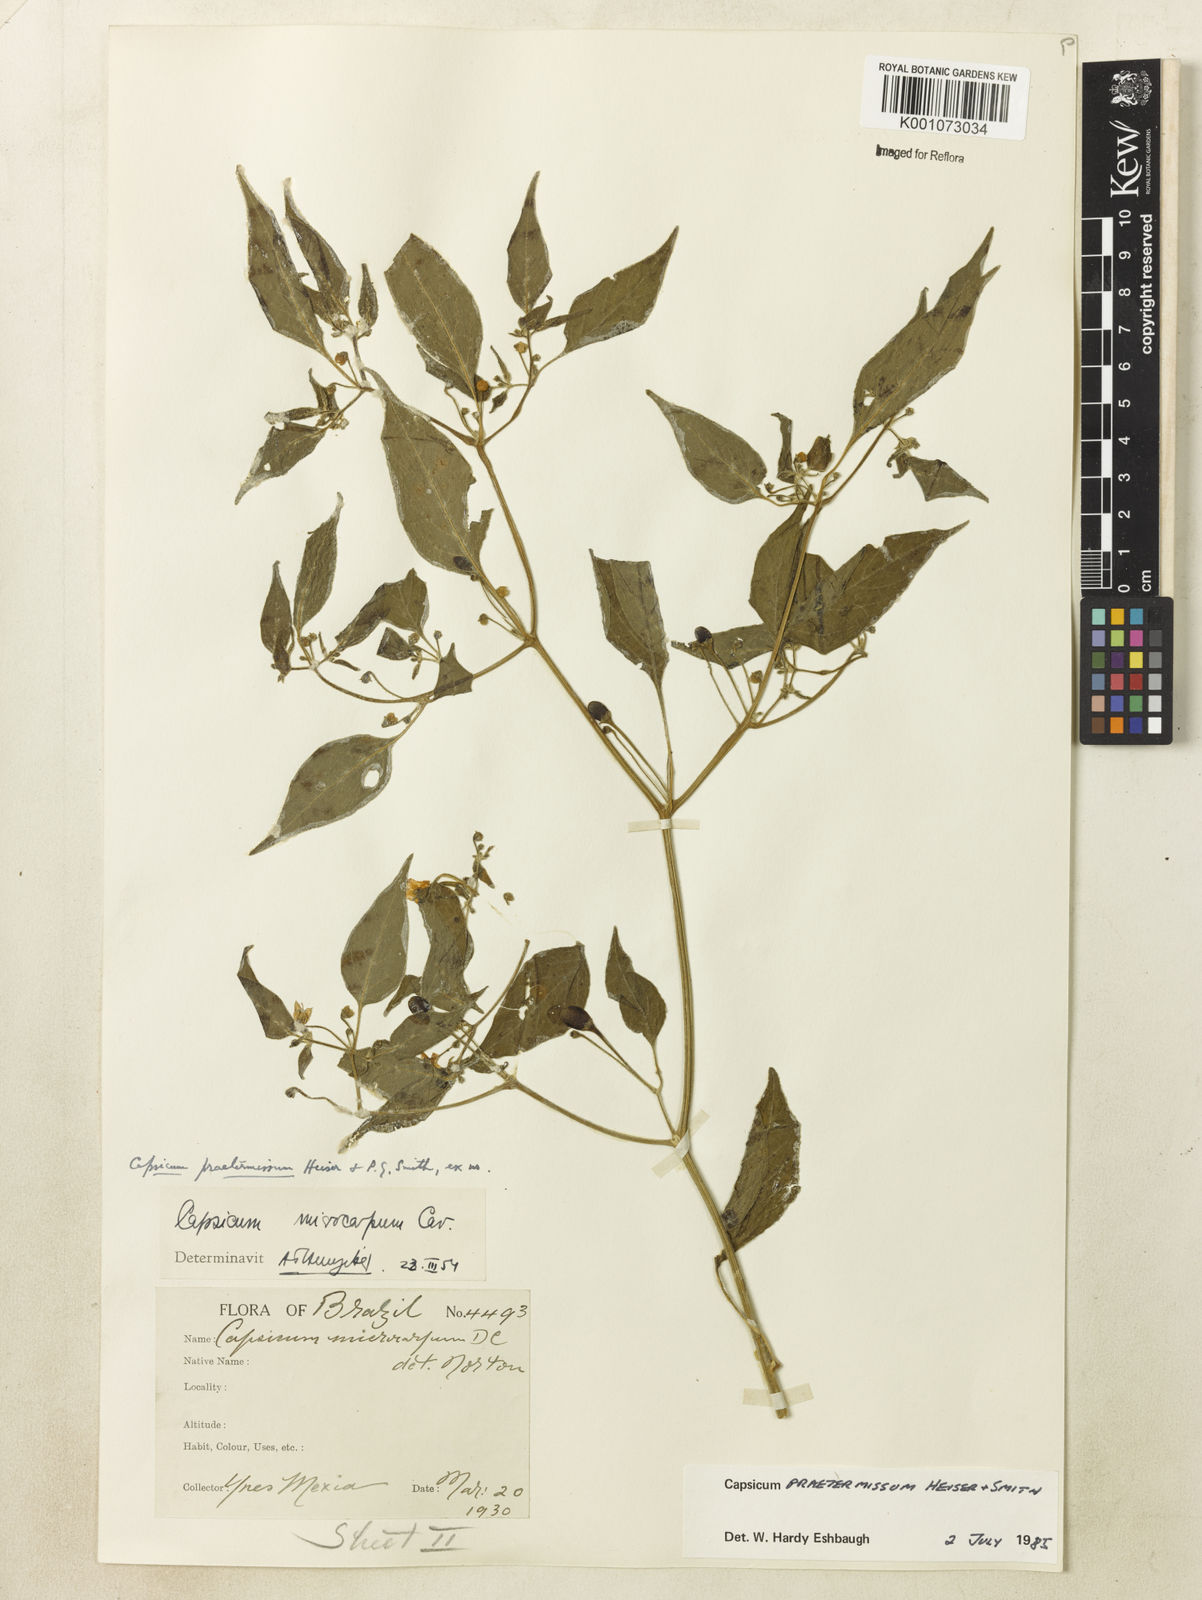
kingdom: Plantae
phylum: Tracheophyta
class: Magnoliopsida
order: Solanales
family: Solanaceae
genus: Capsicum
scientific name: Capsicum rabenii
